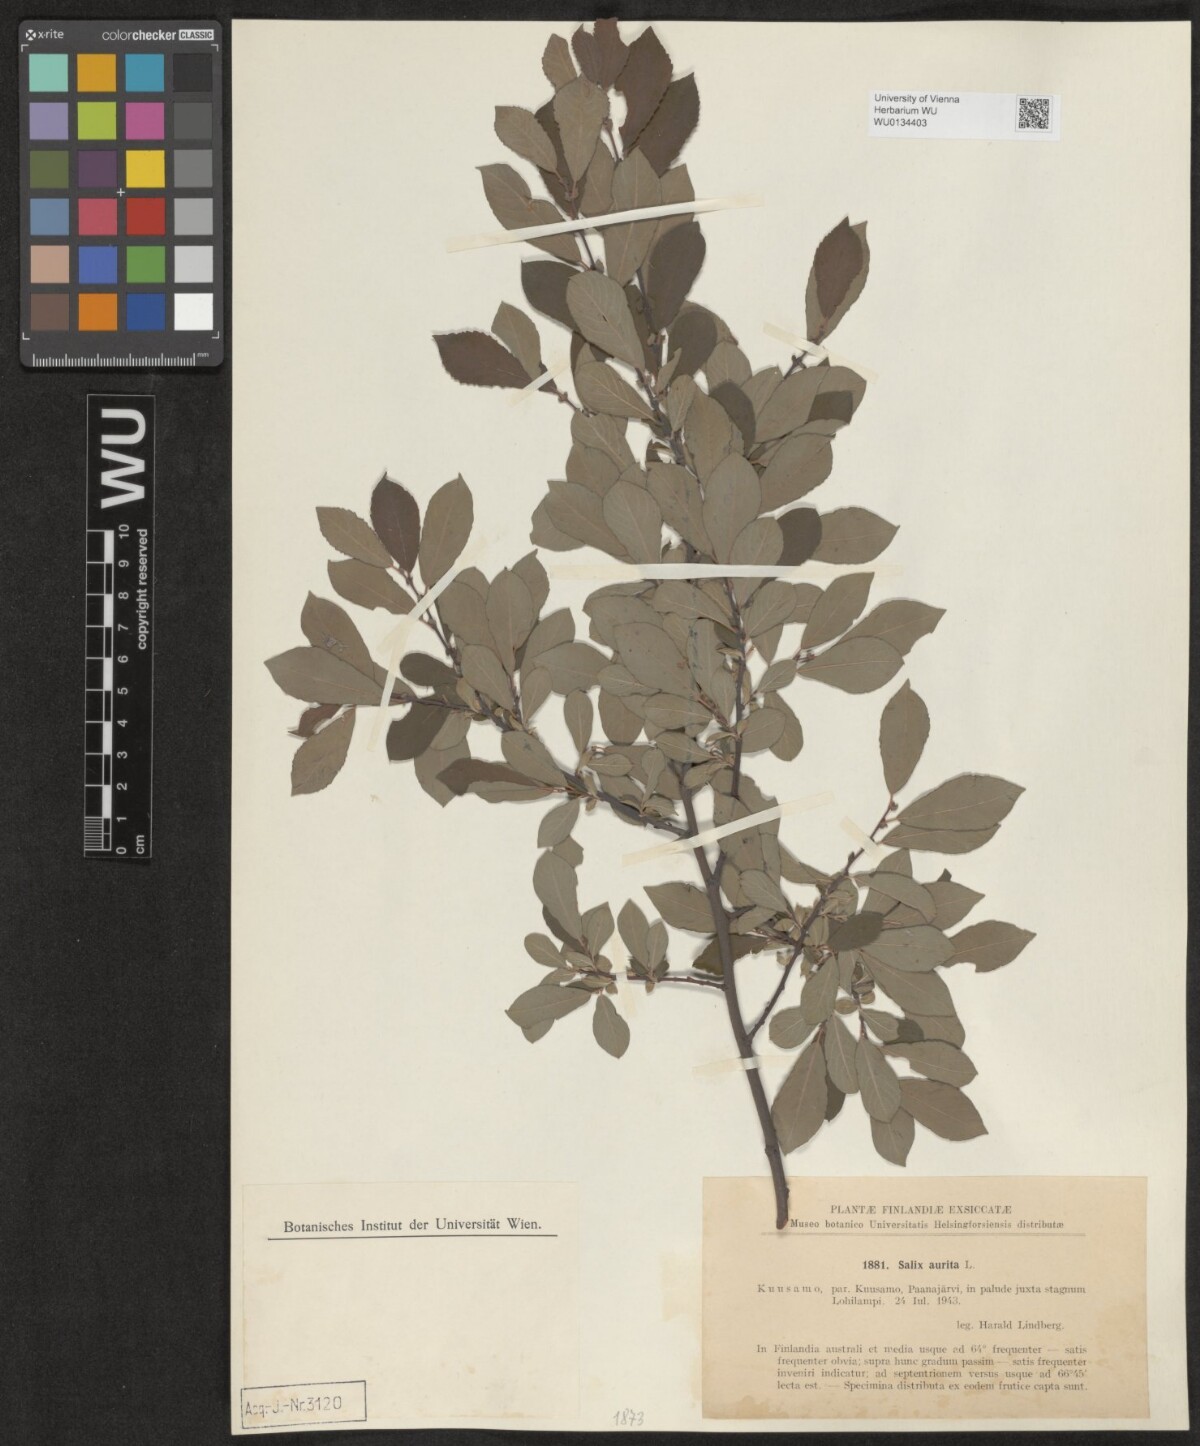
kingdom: Plantae
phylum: Tracheophyta
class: Magnoliopsida
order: Malpighiales
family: Salicaceae
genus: Salix
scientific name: Salix aurita
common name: Eared willow
